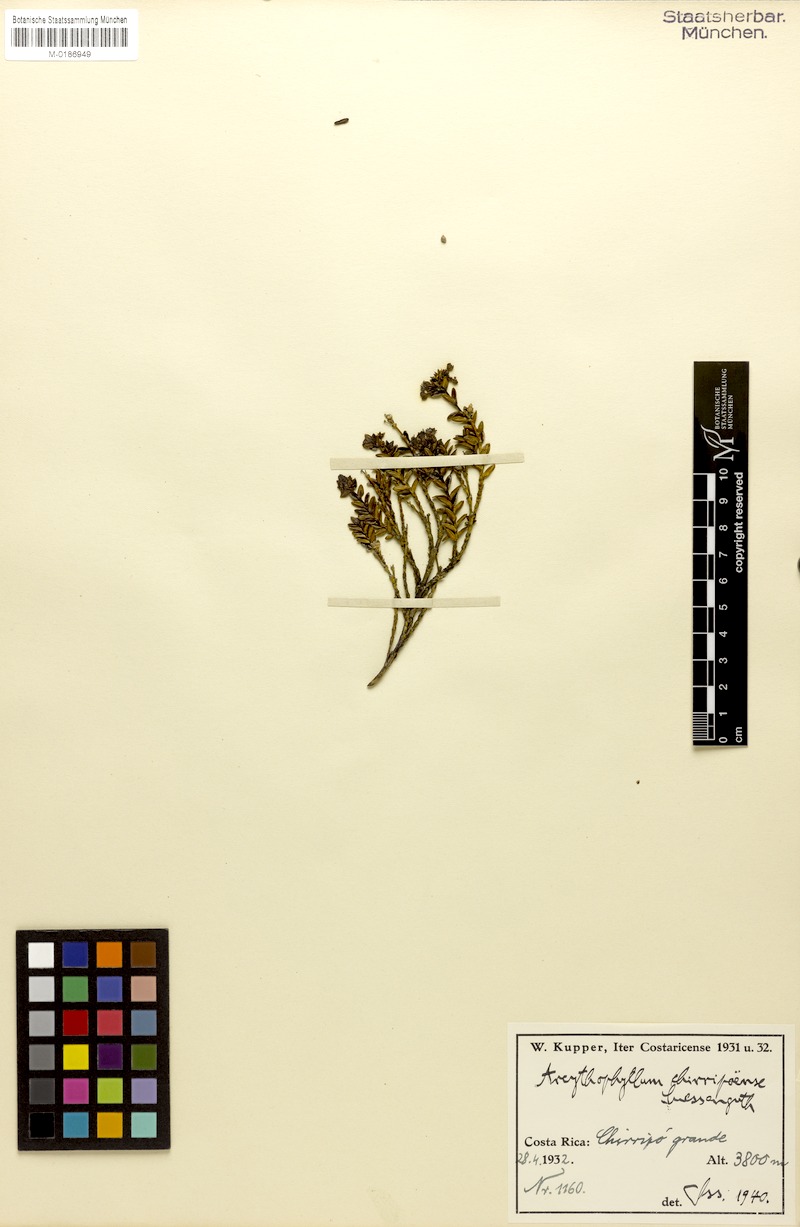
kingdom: Plantae
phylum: Tracheophyta
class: Magnoliopsida
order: Gentianales
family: Rubiaceae
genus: Arcytophyllum
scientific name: Arcytophyllum lavarum
